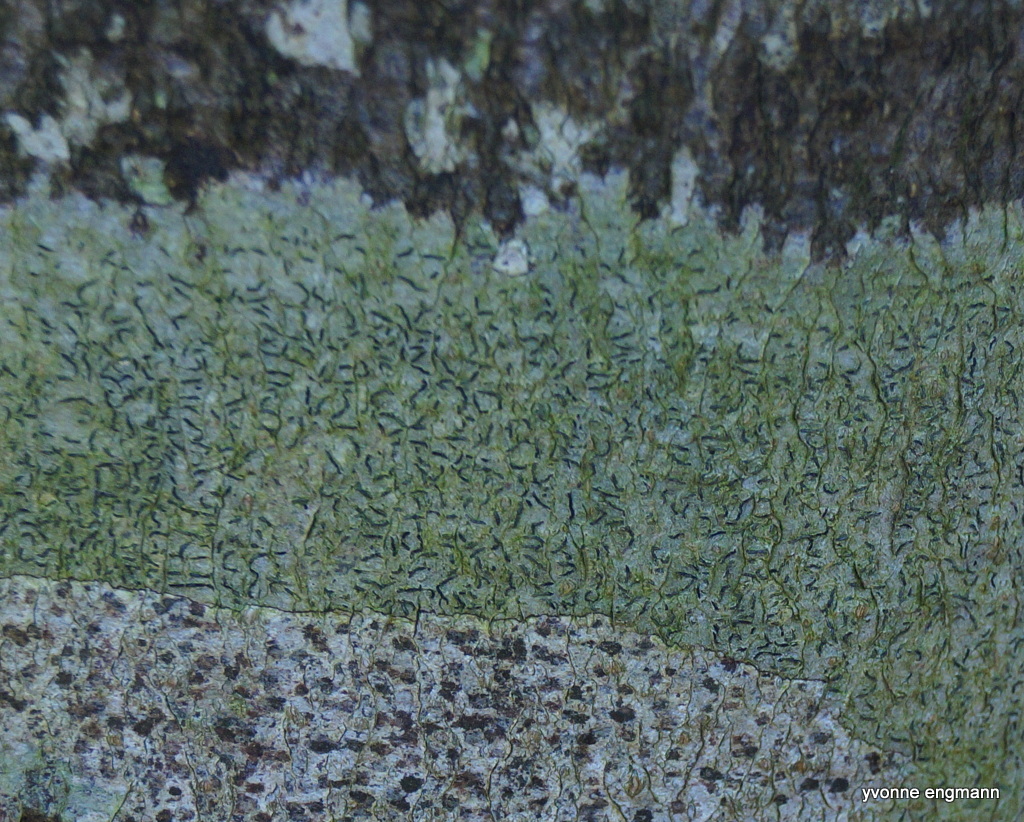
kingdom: Fungi
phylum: Ascomycota
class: Lecanoromycetes
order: Ostropales
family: Graphidaceae
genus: Graphis
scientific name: Graphis scripta
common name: almindelig skriftlav
